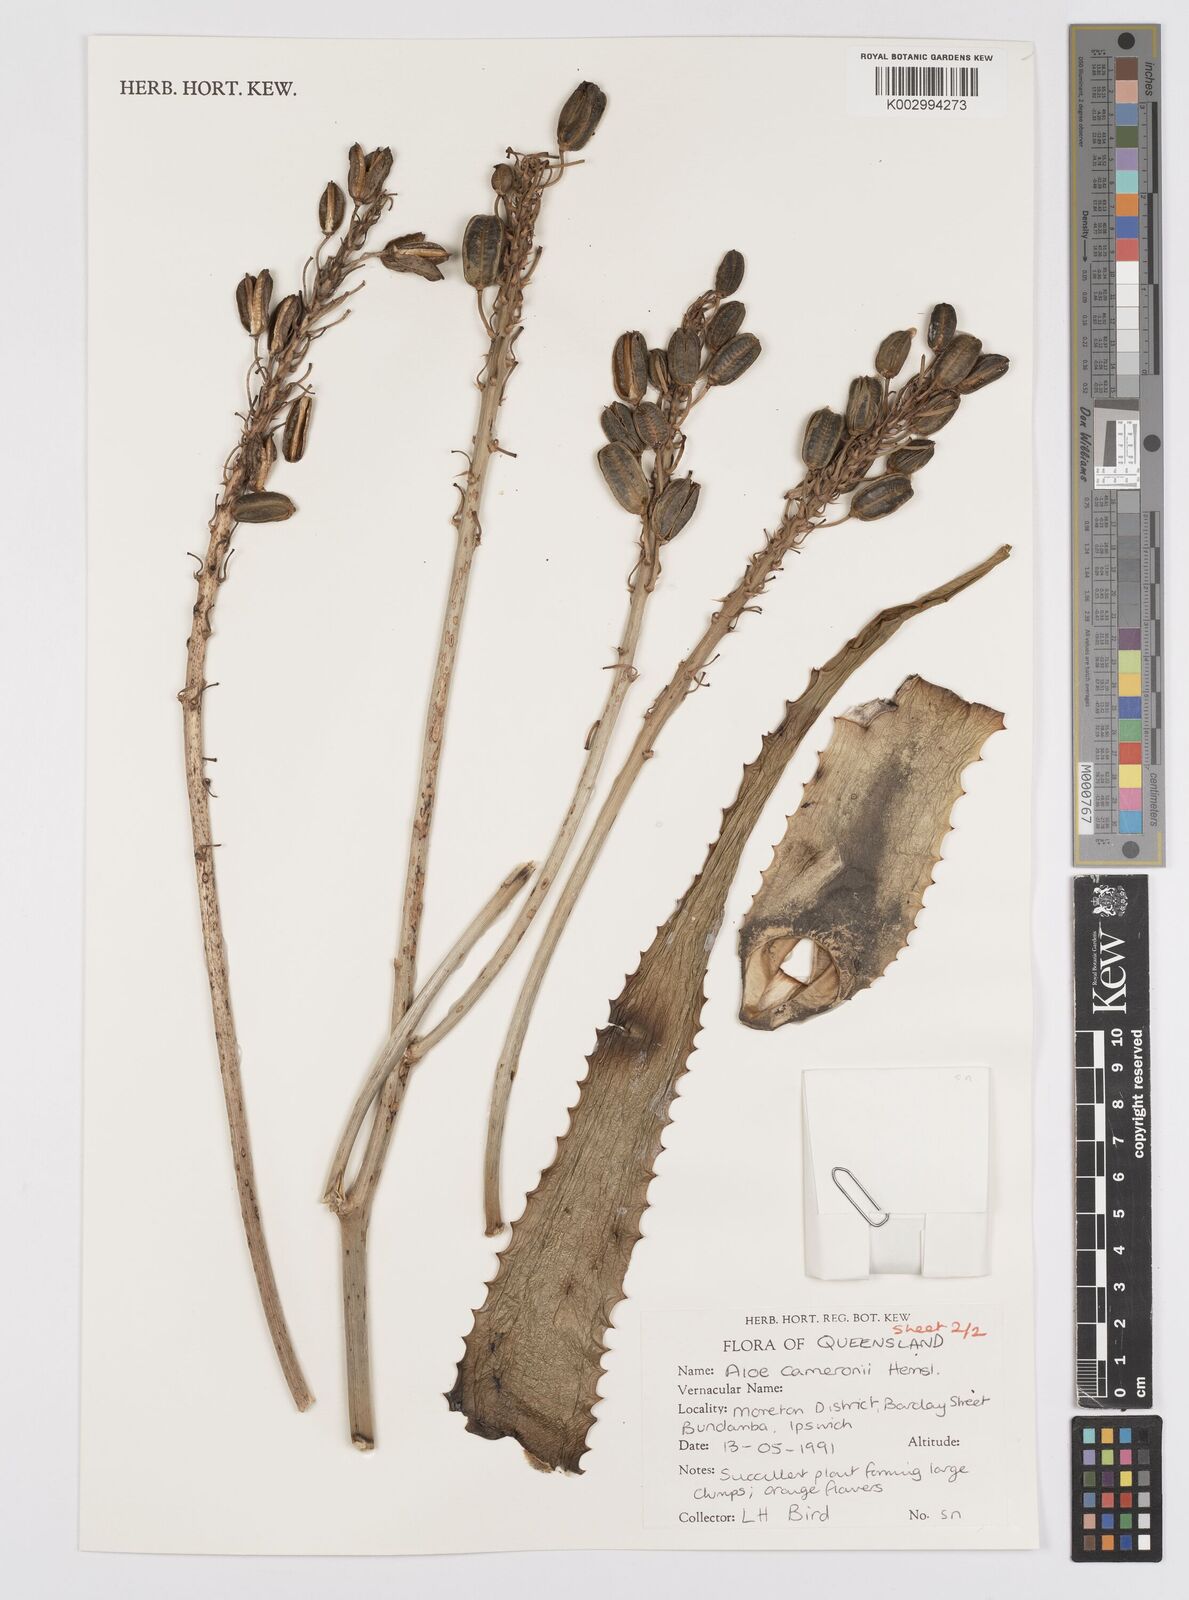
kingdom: Plantae
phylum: Tracheophyta
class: Liliopsida
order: Asparagales
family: Asphodelaceae
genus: Aloe
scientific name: Aloe cameronii
